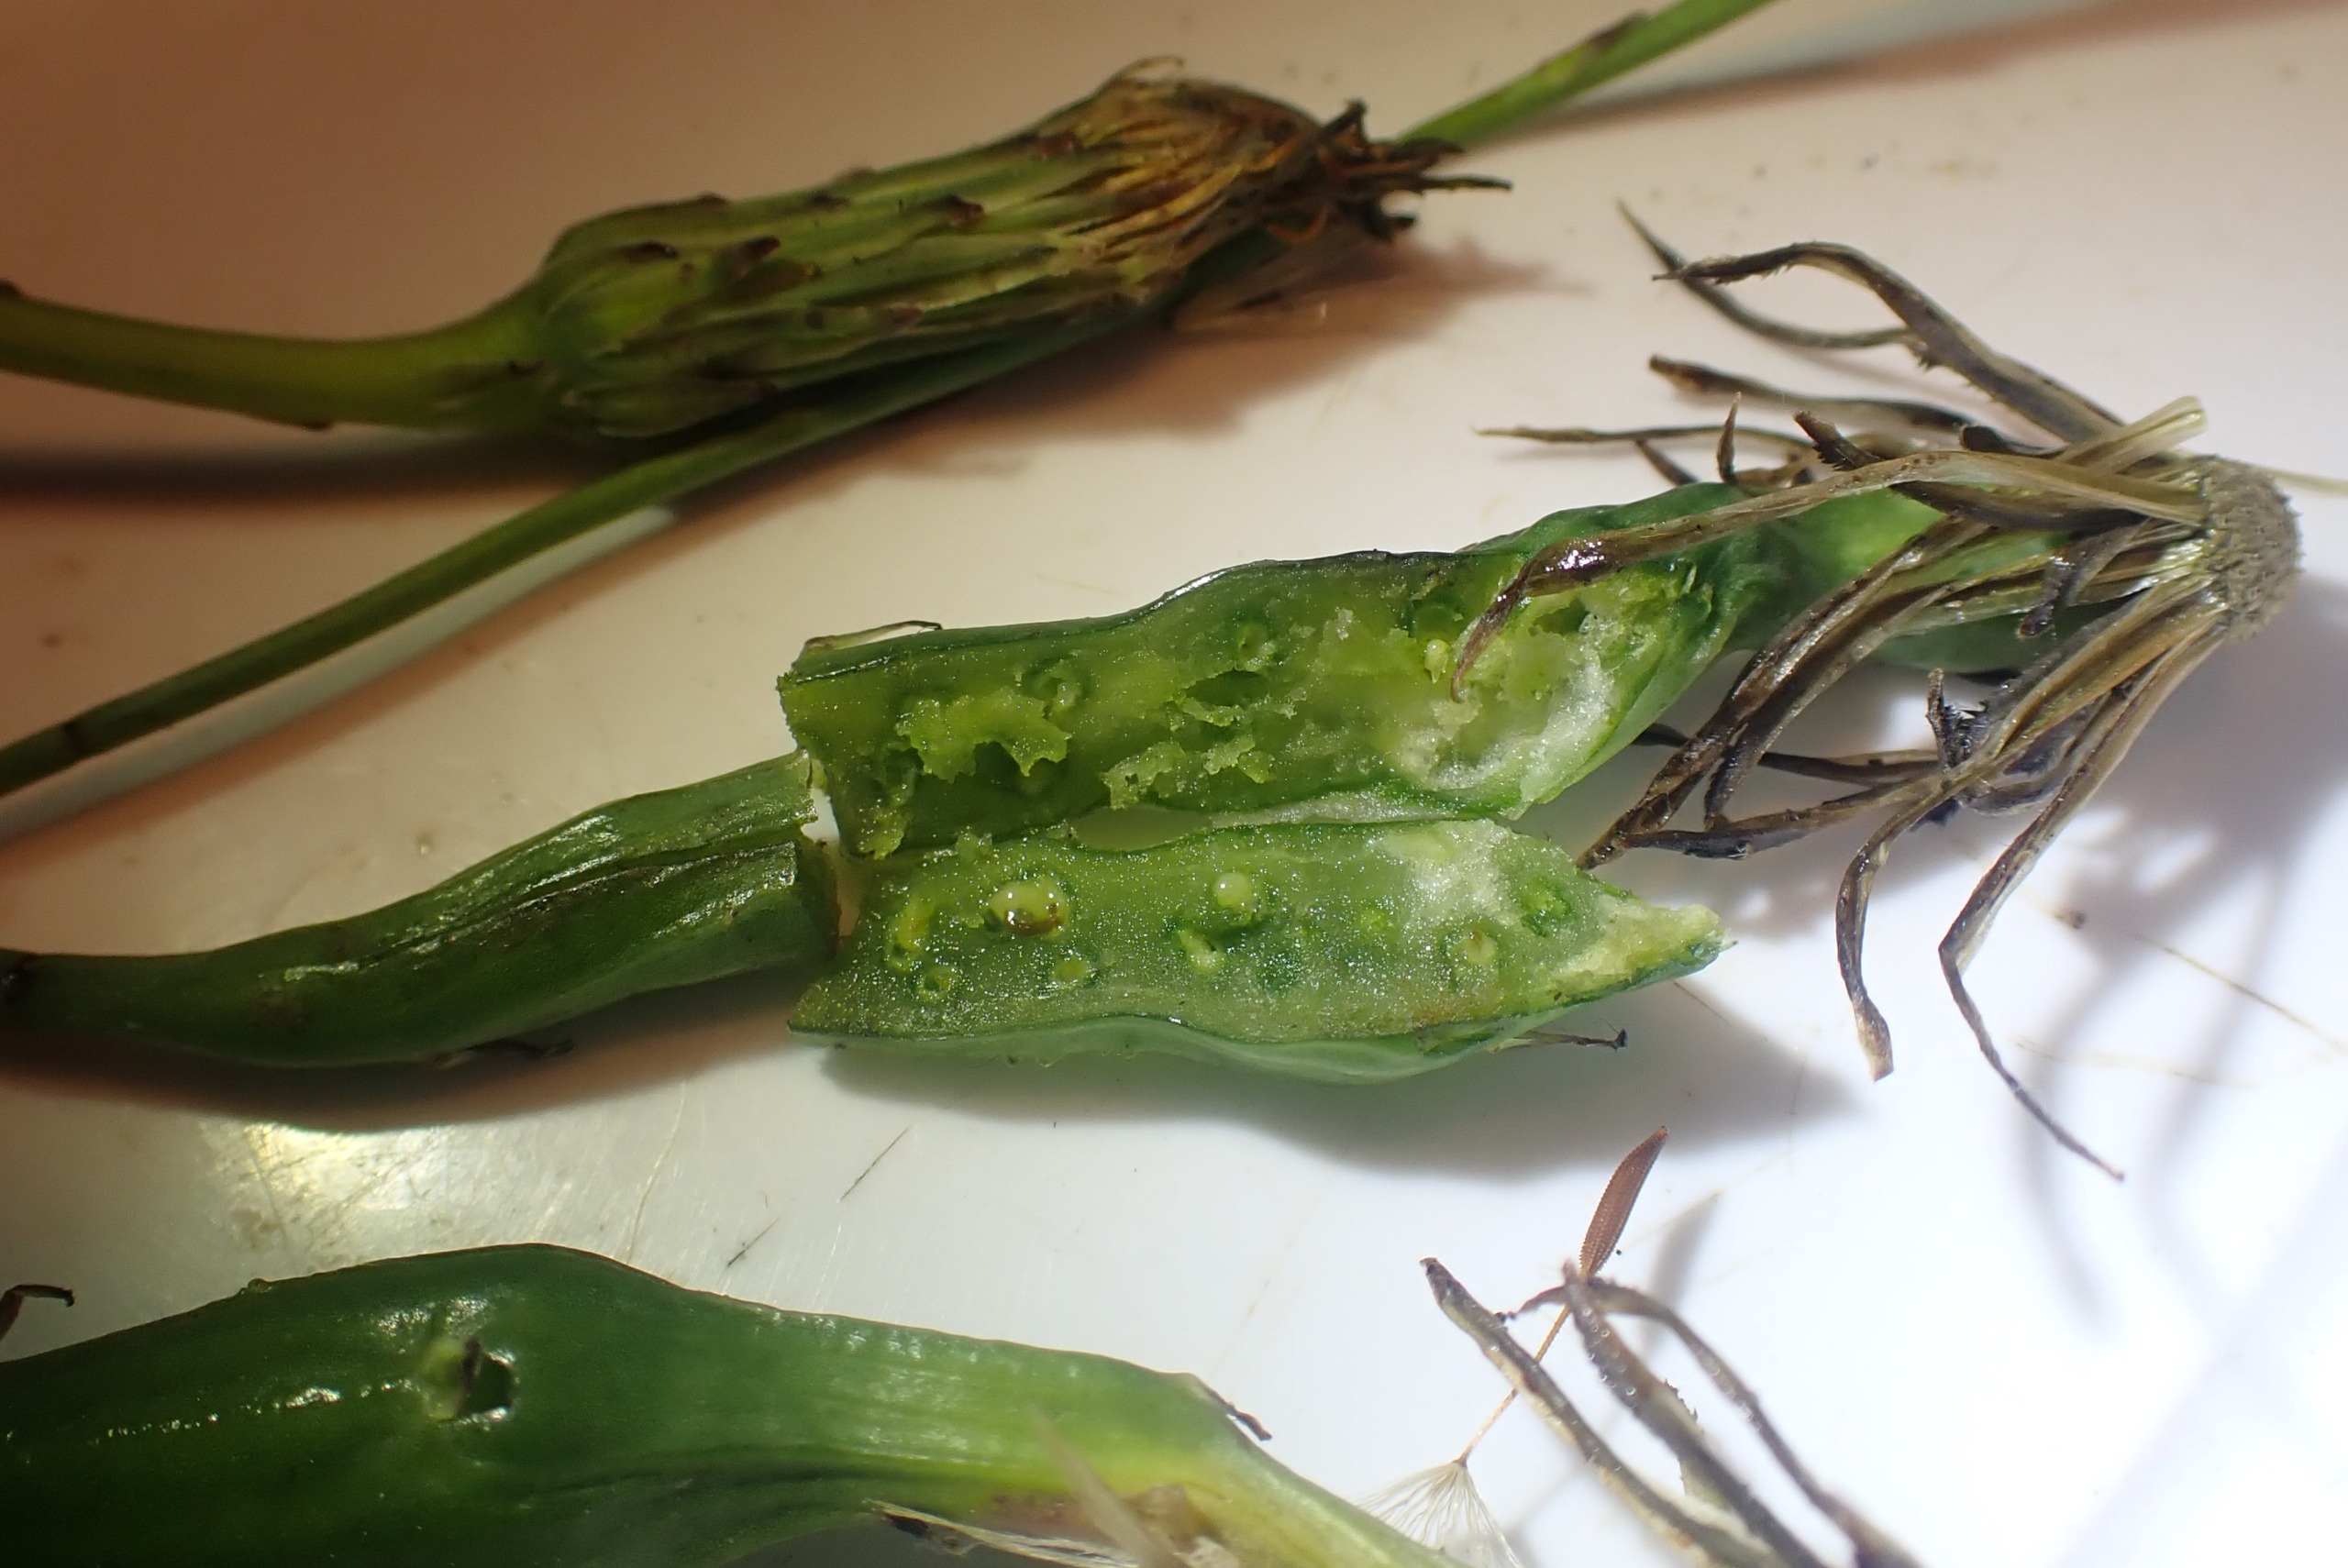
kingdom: Animalia
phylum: Arthropoda
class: Insecta
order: Hymenoptera
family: Cynipidae
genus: Phanacis
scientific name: Phanacis hypochoeridis
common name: Kongepengalhveps
